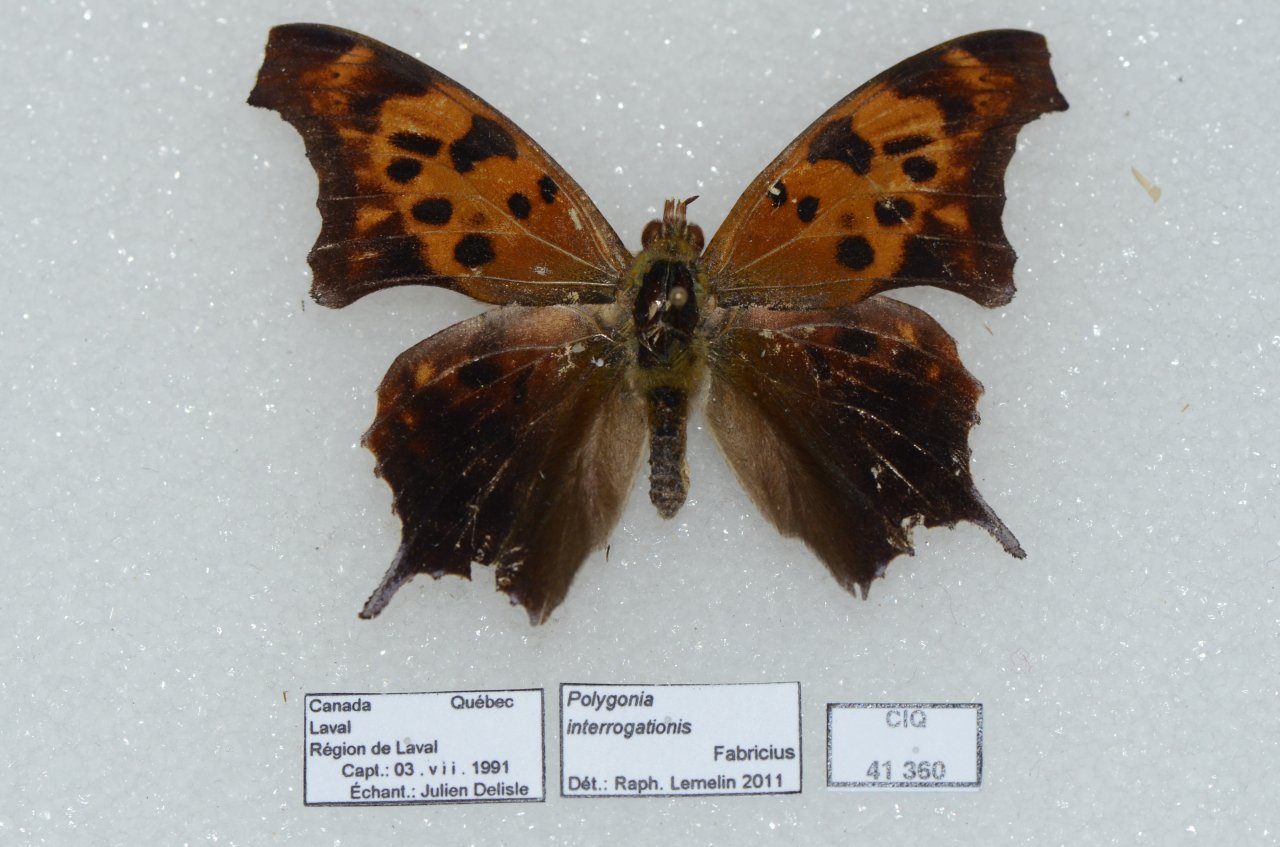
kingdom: Animalia
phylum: Arthropoda
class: Insecta
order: Lepidoptera
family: Nymphalidae
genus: Polygonia
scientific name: Polygonia interrogationis
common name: Question Mark
